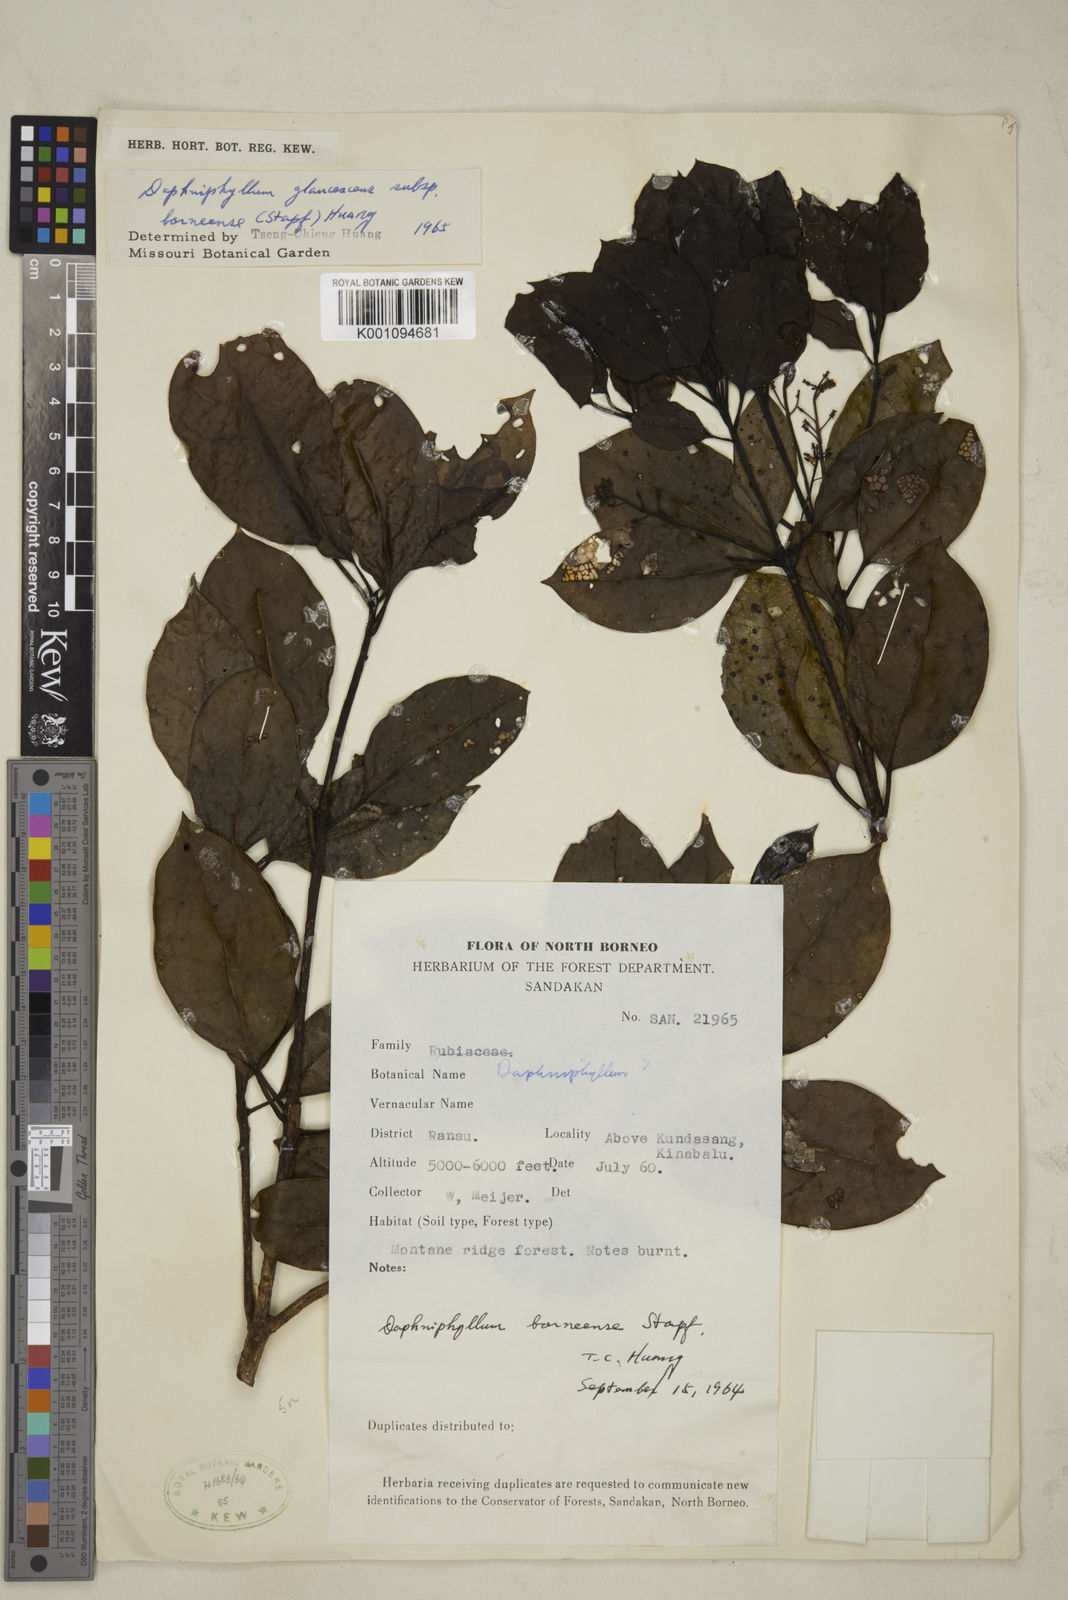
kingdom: Plantae
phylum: Tracheophyta
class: Magnoliopsida
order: Saxifragales
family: Daphniphyllaceae
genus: Daphniphyllum
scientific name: Daphniphyllum borneense
